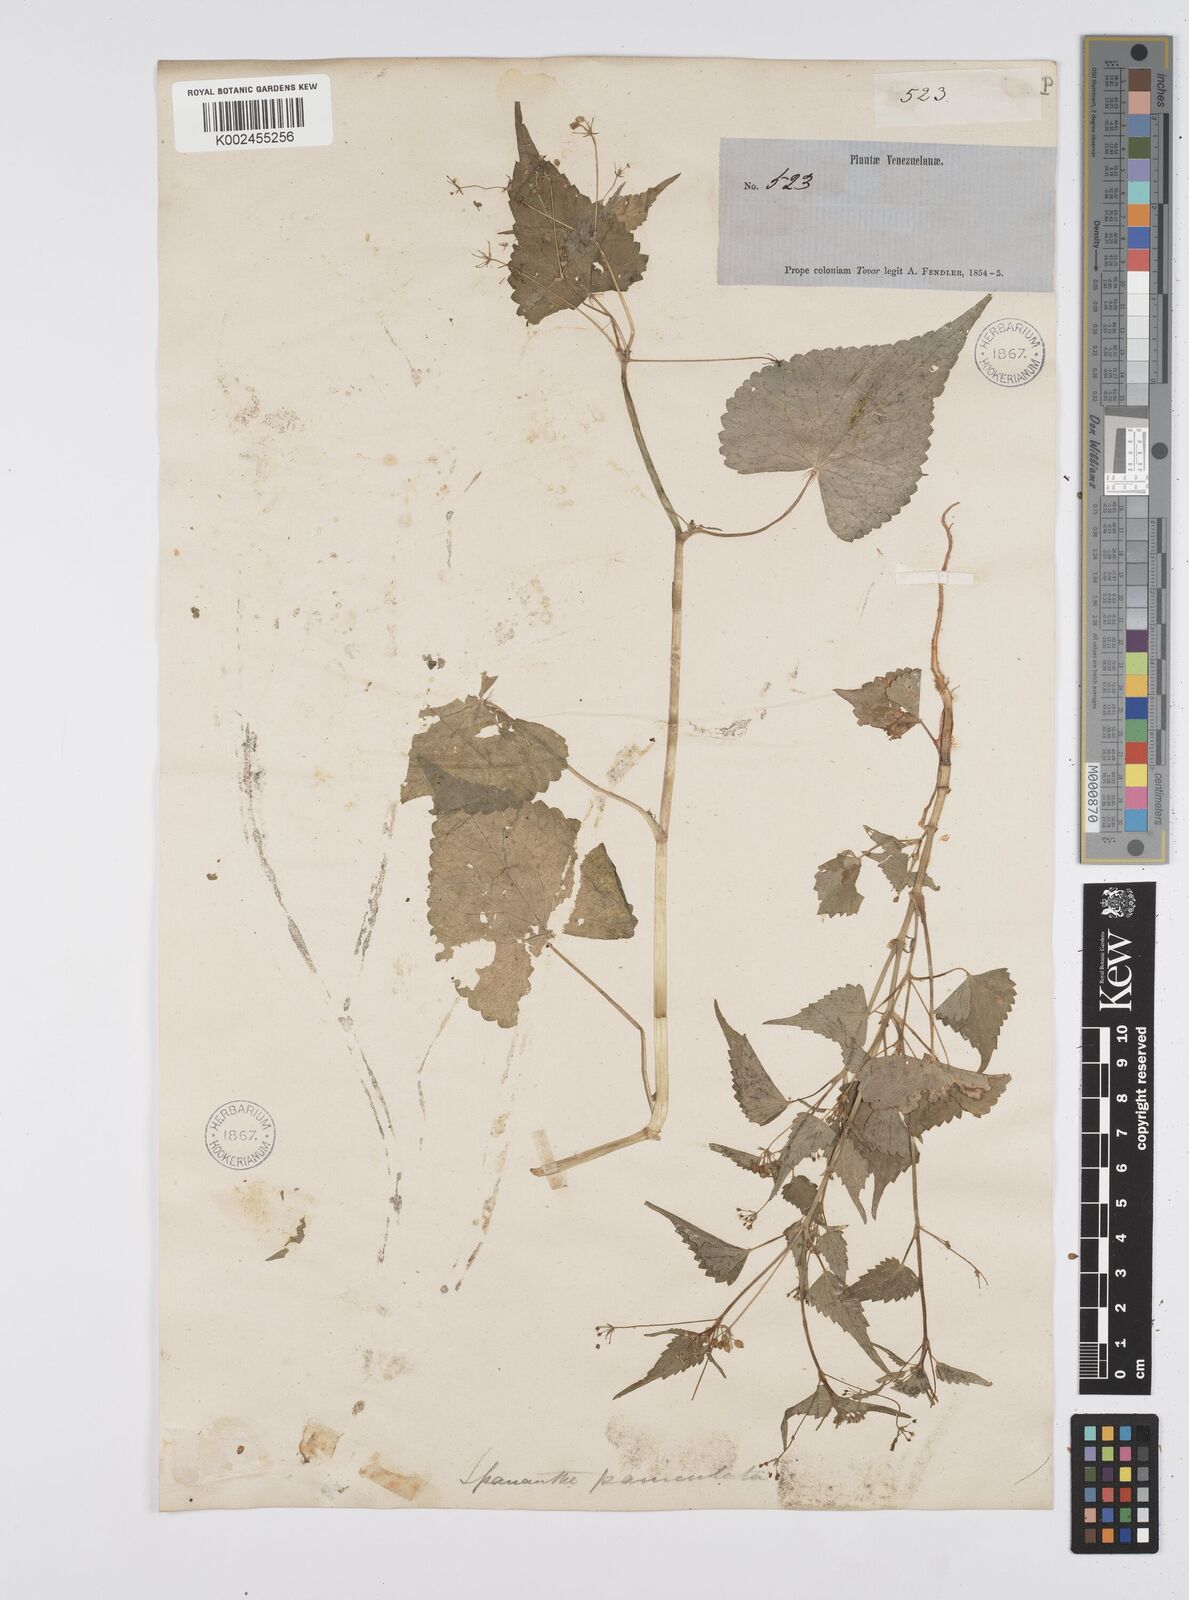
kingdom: Plantae
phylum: Tracheophyta
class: Magnoliopsida
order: Apiales
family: Apiaceae
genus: Azorella
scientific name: Azorella
